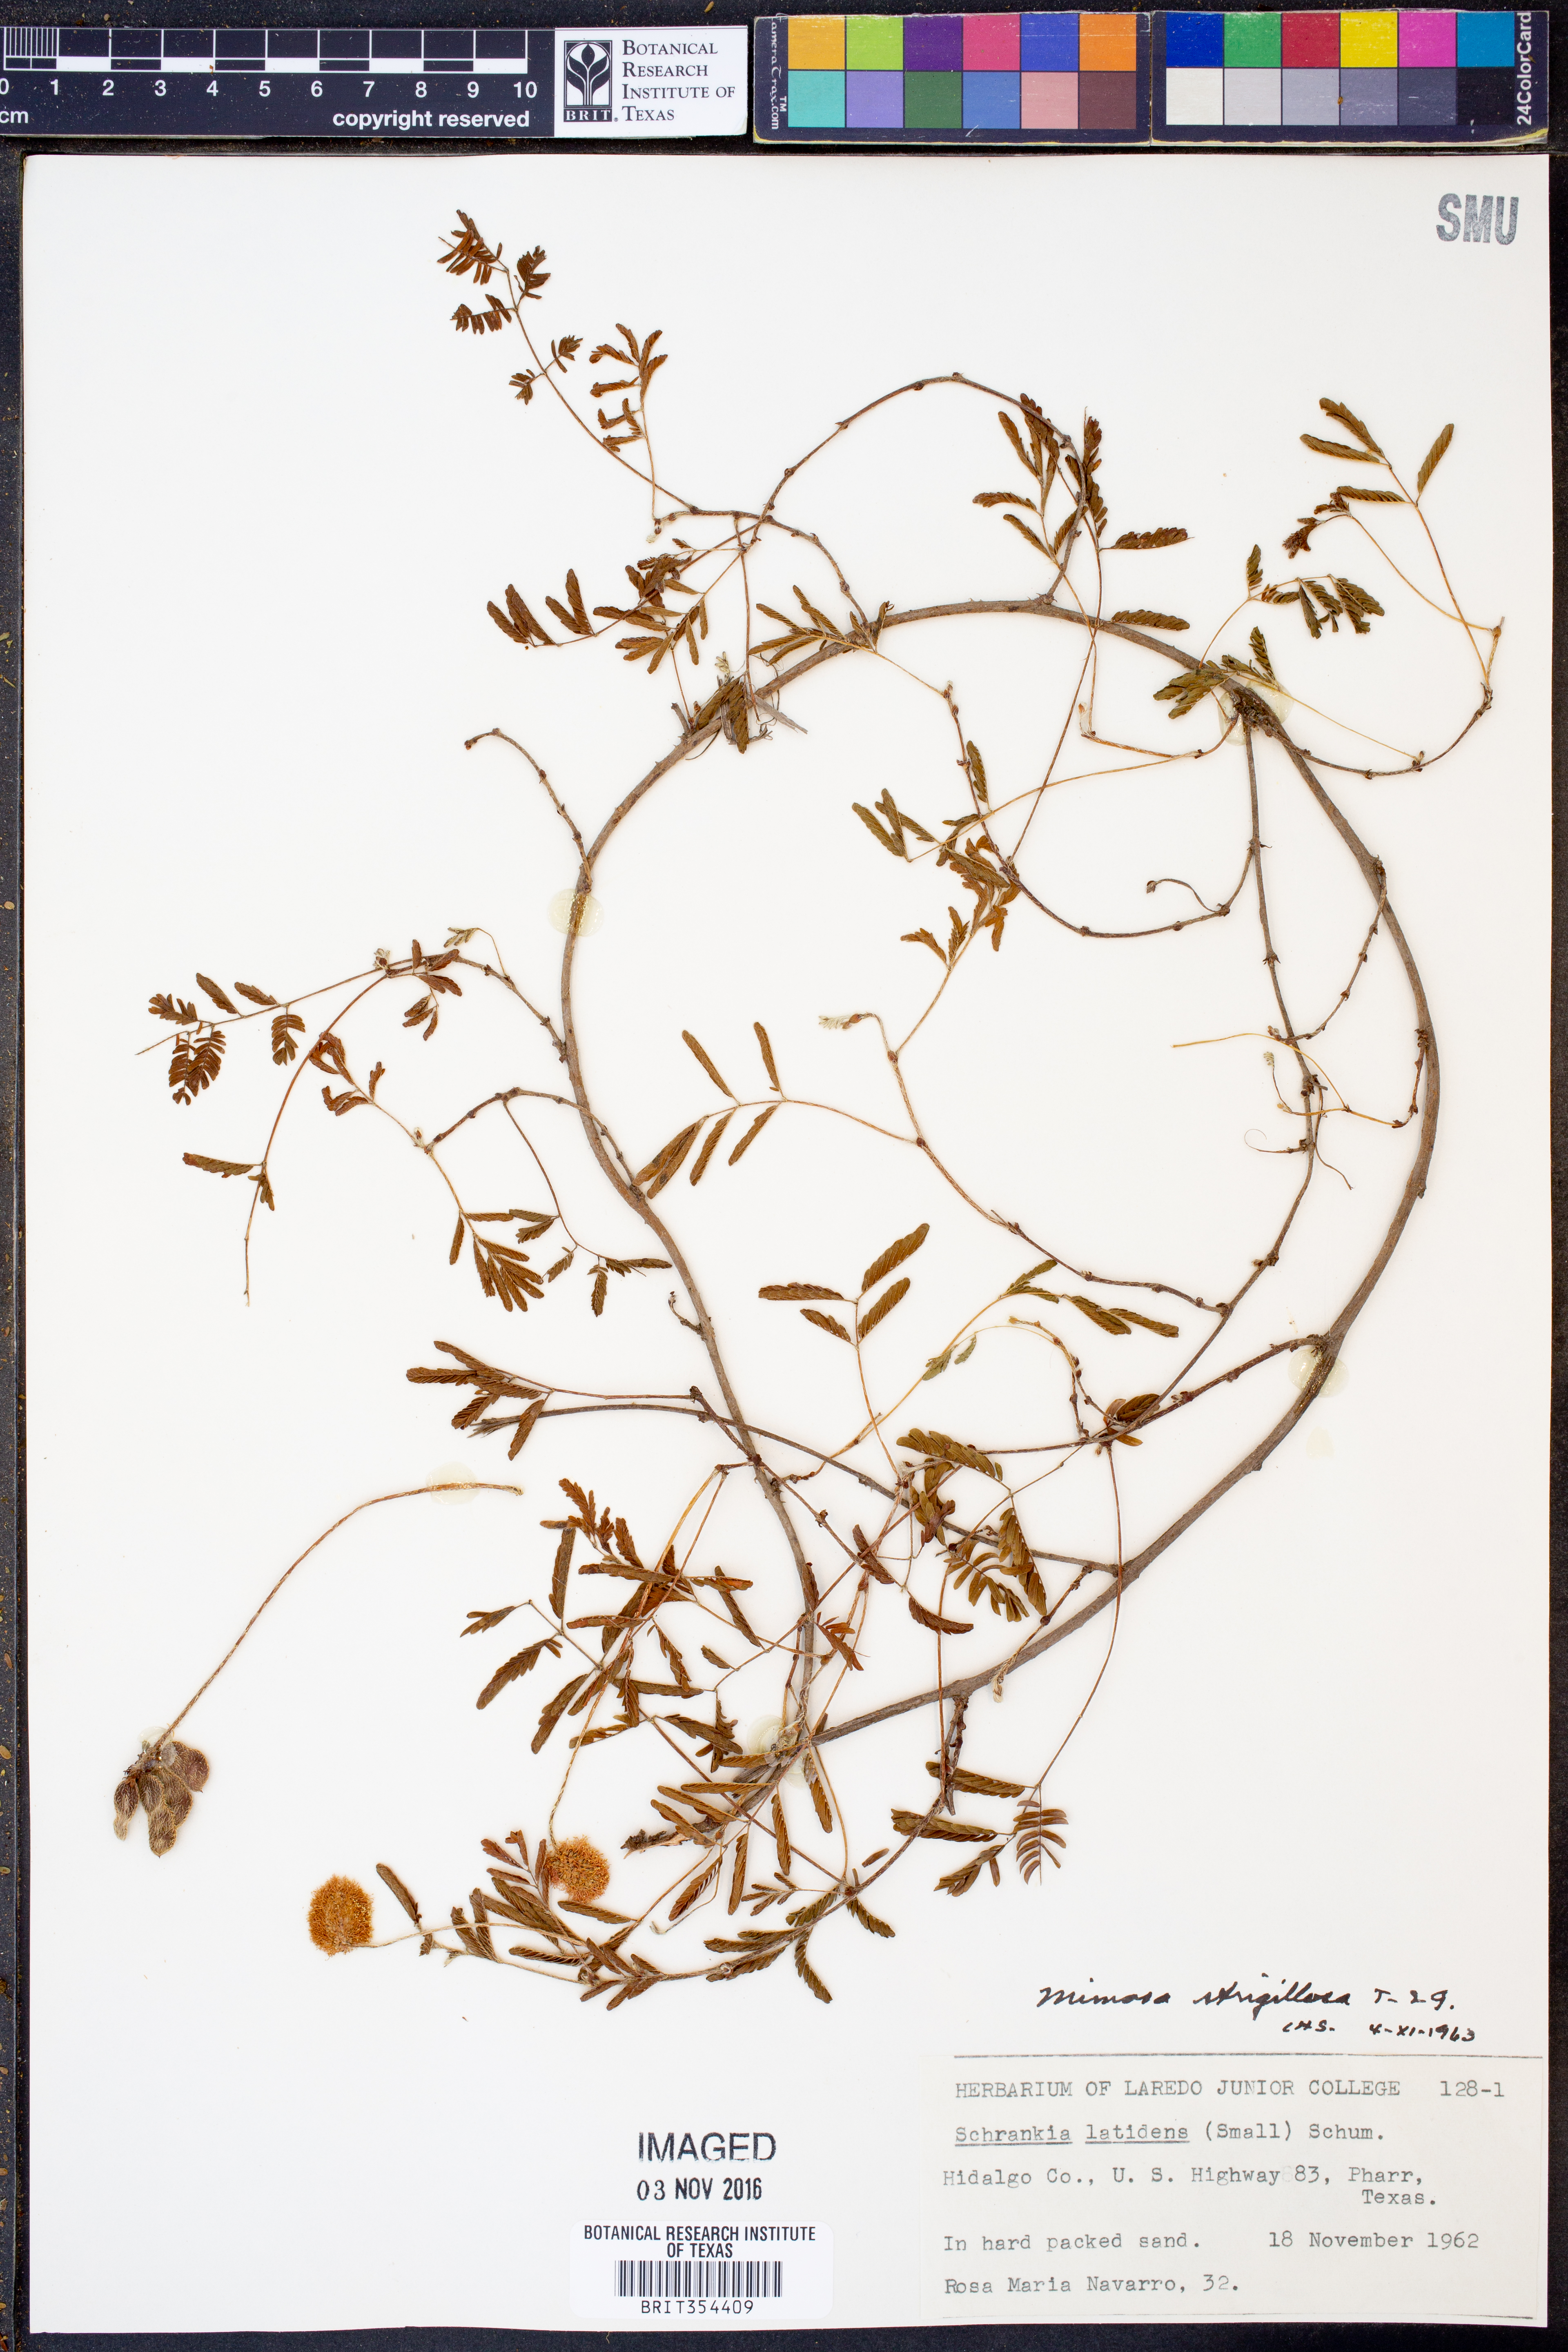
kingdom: Plantae
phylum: Tracheophyta
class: Magnoliopsida
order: Fabales
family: Fabaceae
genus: Mimosa
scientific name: Mimosa strigillosa
